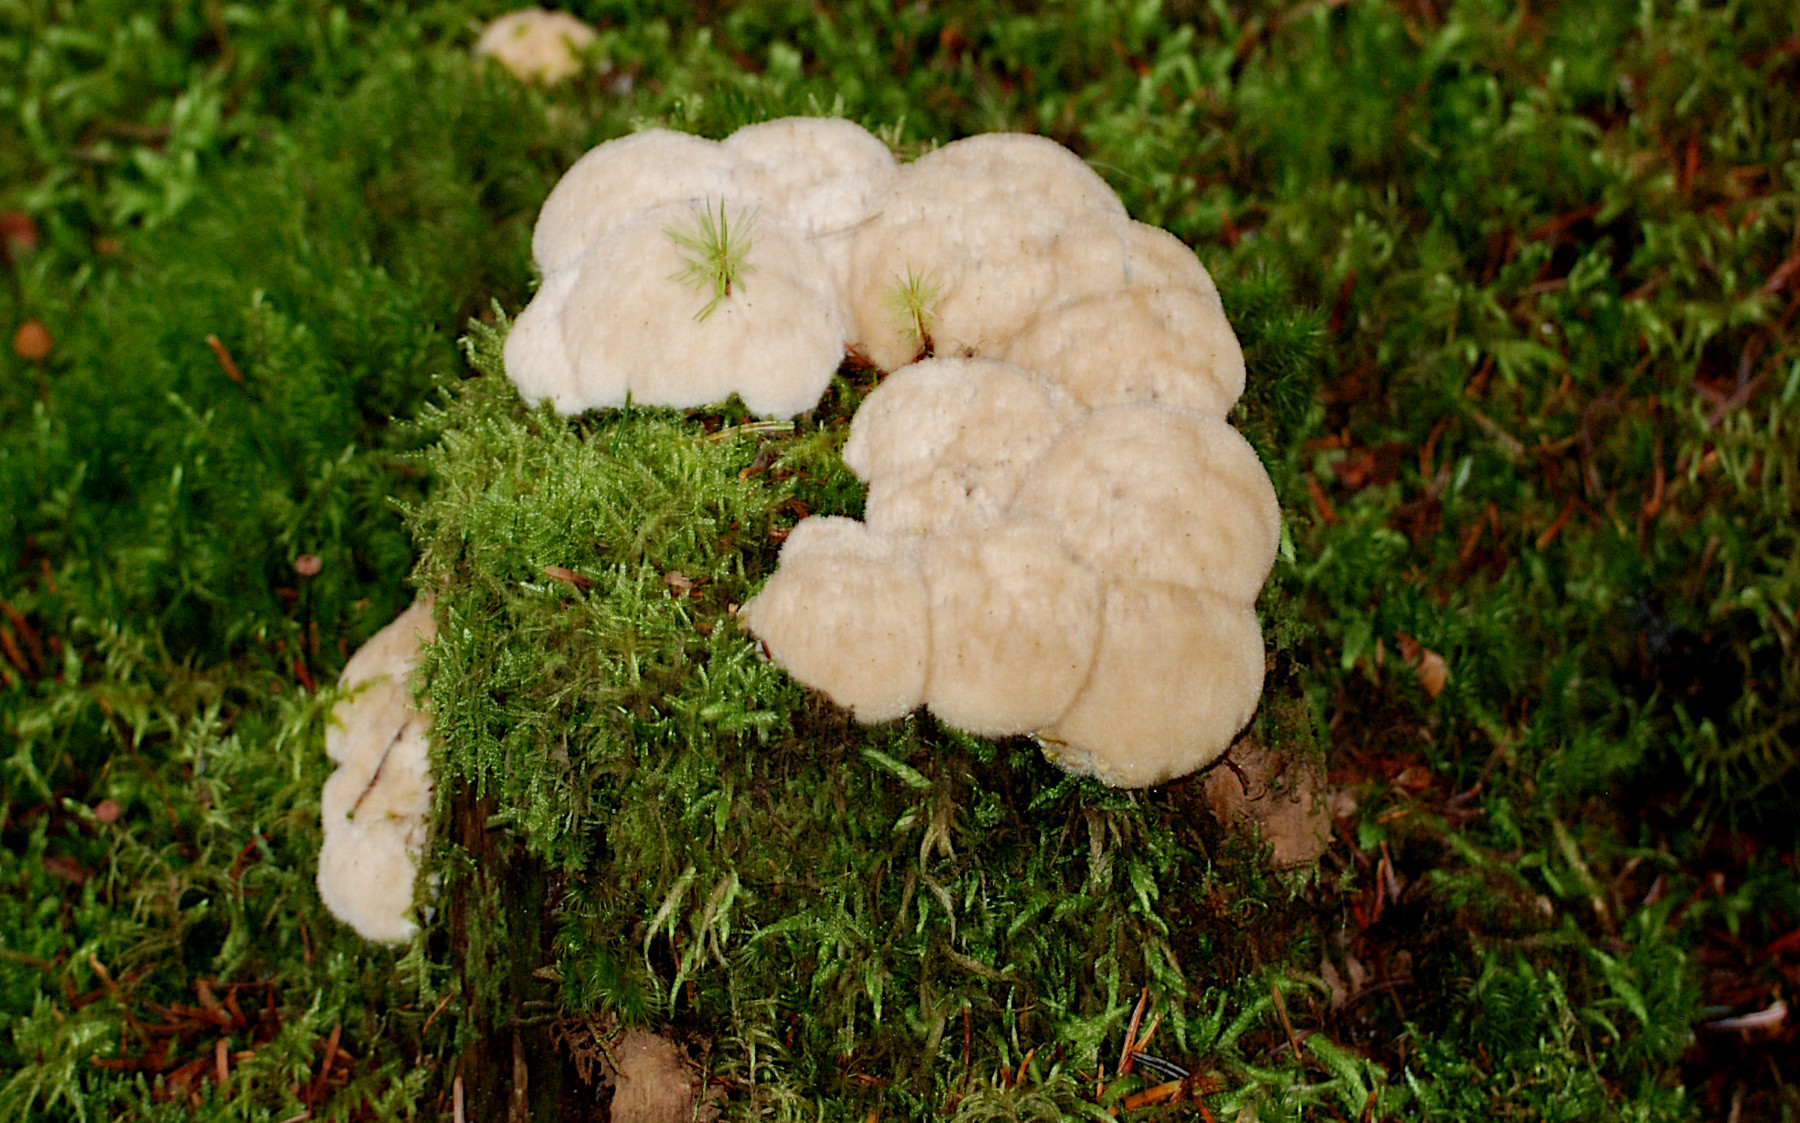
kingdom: Fungi
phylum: Basidiomycota
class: Agaricomycetes
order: Polyporales
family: Dacryobolaceae
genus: Postia
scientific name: Postia ptychogaster
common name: støvende kødporesvamp
